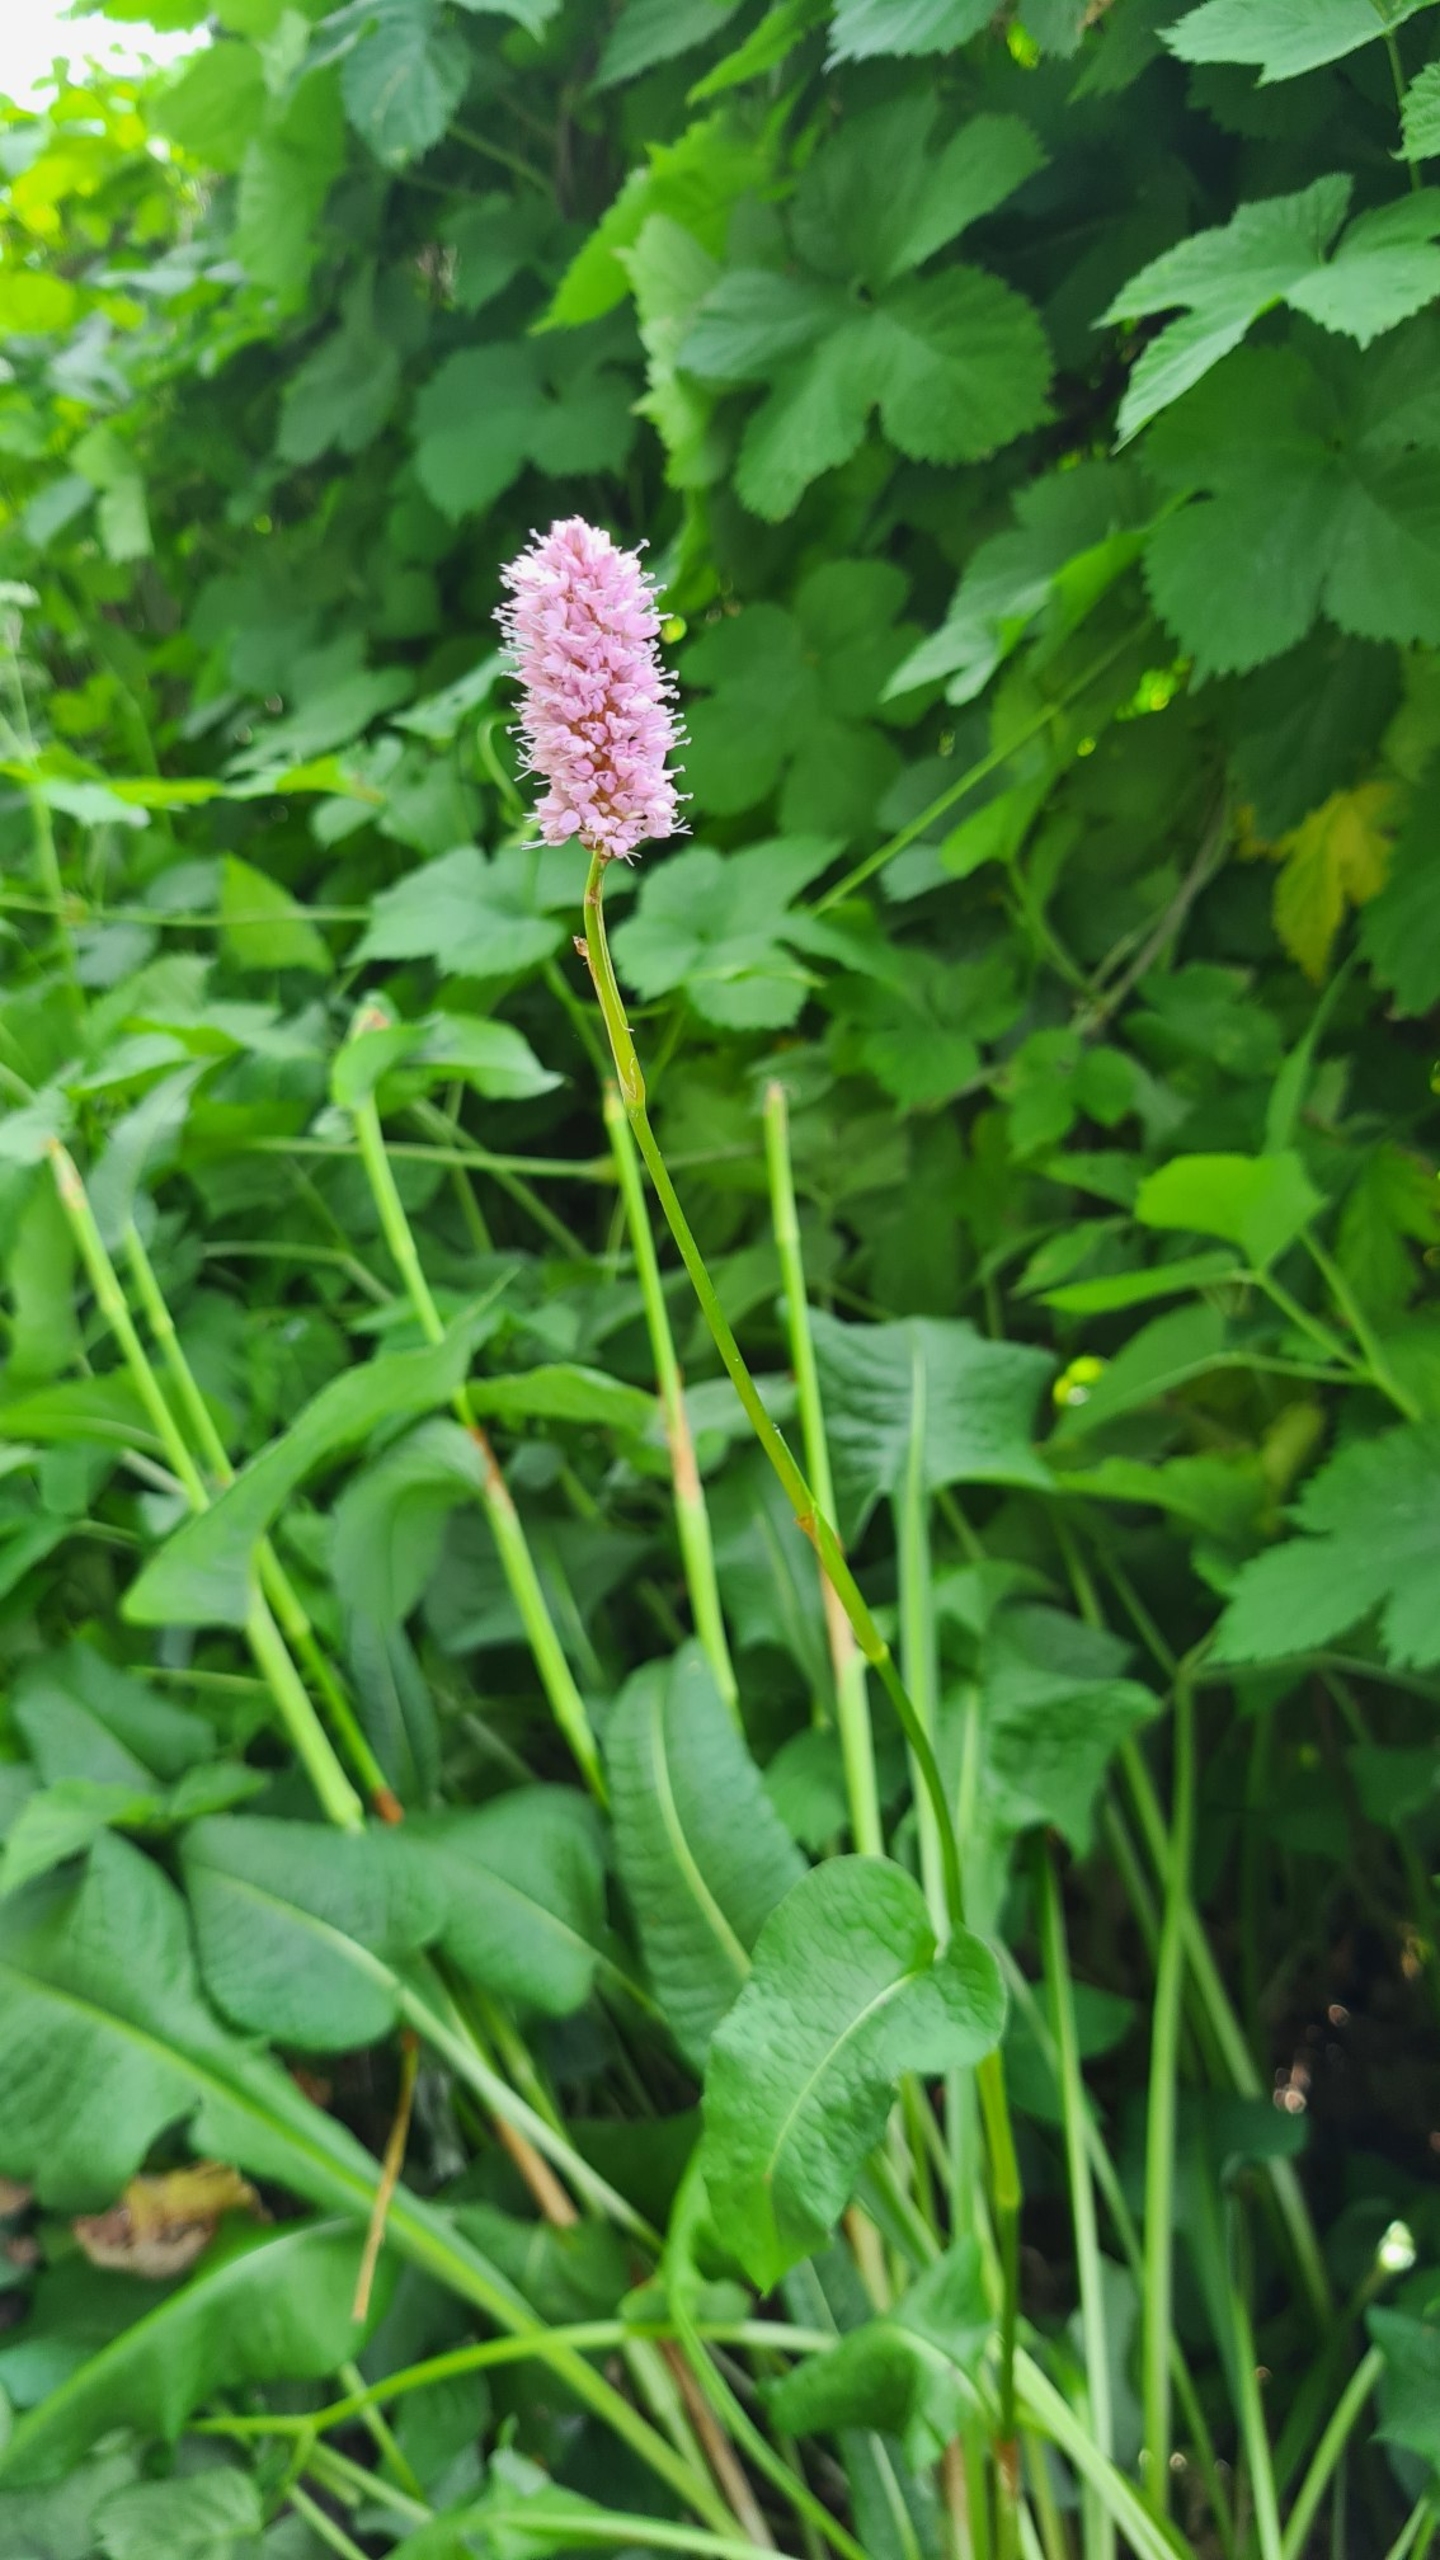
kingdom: Plantae
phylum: Tracheophyta
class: Magnoliopsida
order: Caryophyllales
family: Polygonaceae
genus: Bistorta
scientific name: Bistorta officinalis
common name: Slangeurt
